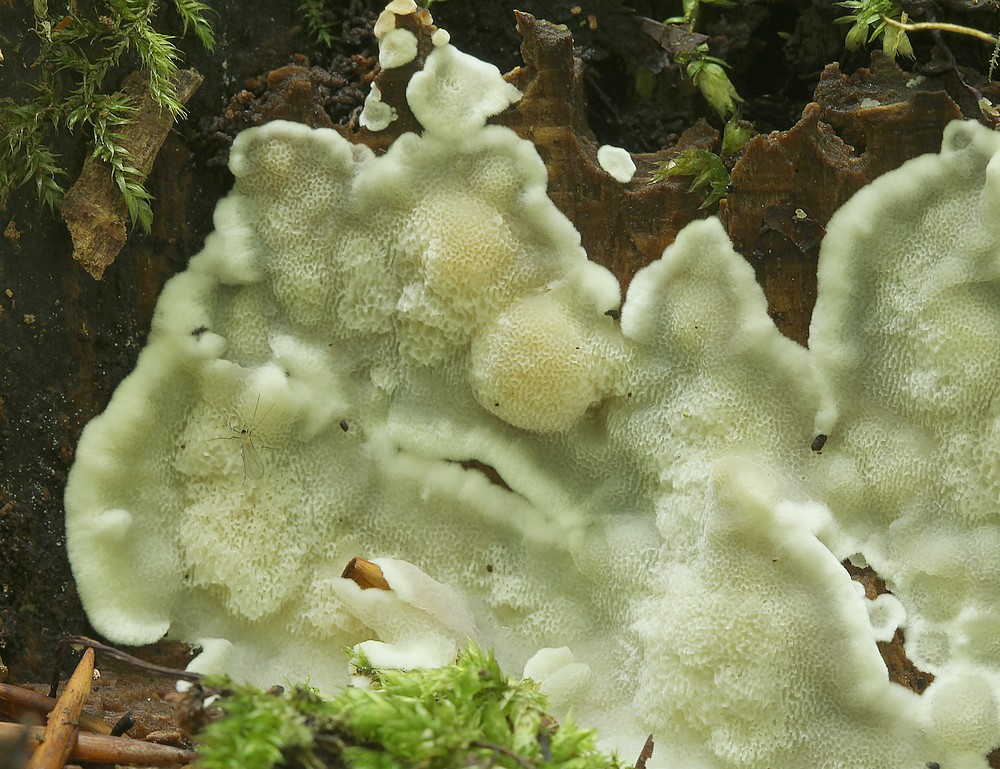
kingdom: Fungi
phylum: Basidiomycota
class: Agaricomycetes
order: Polyporales
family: Meruliaceae
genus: Physisporinus
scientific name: Physisporinus vitreus
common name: mastesvamp
